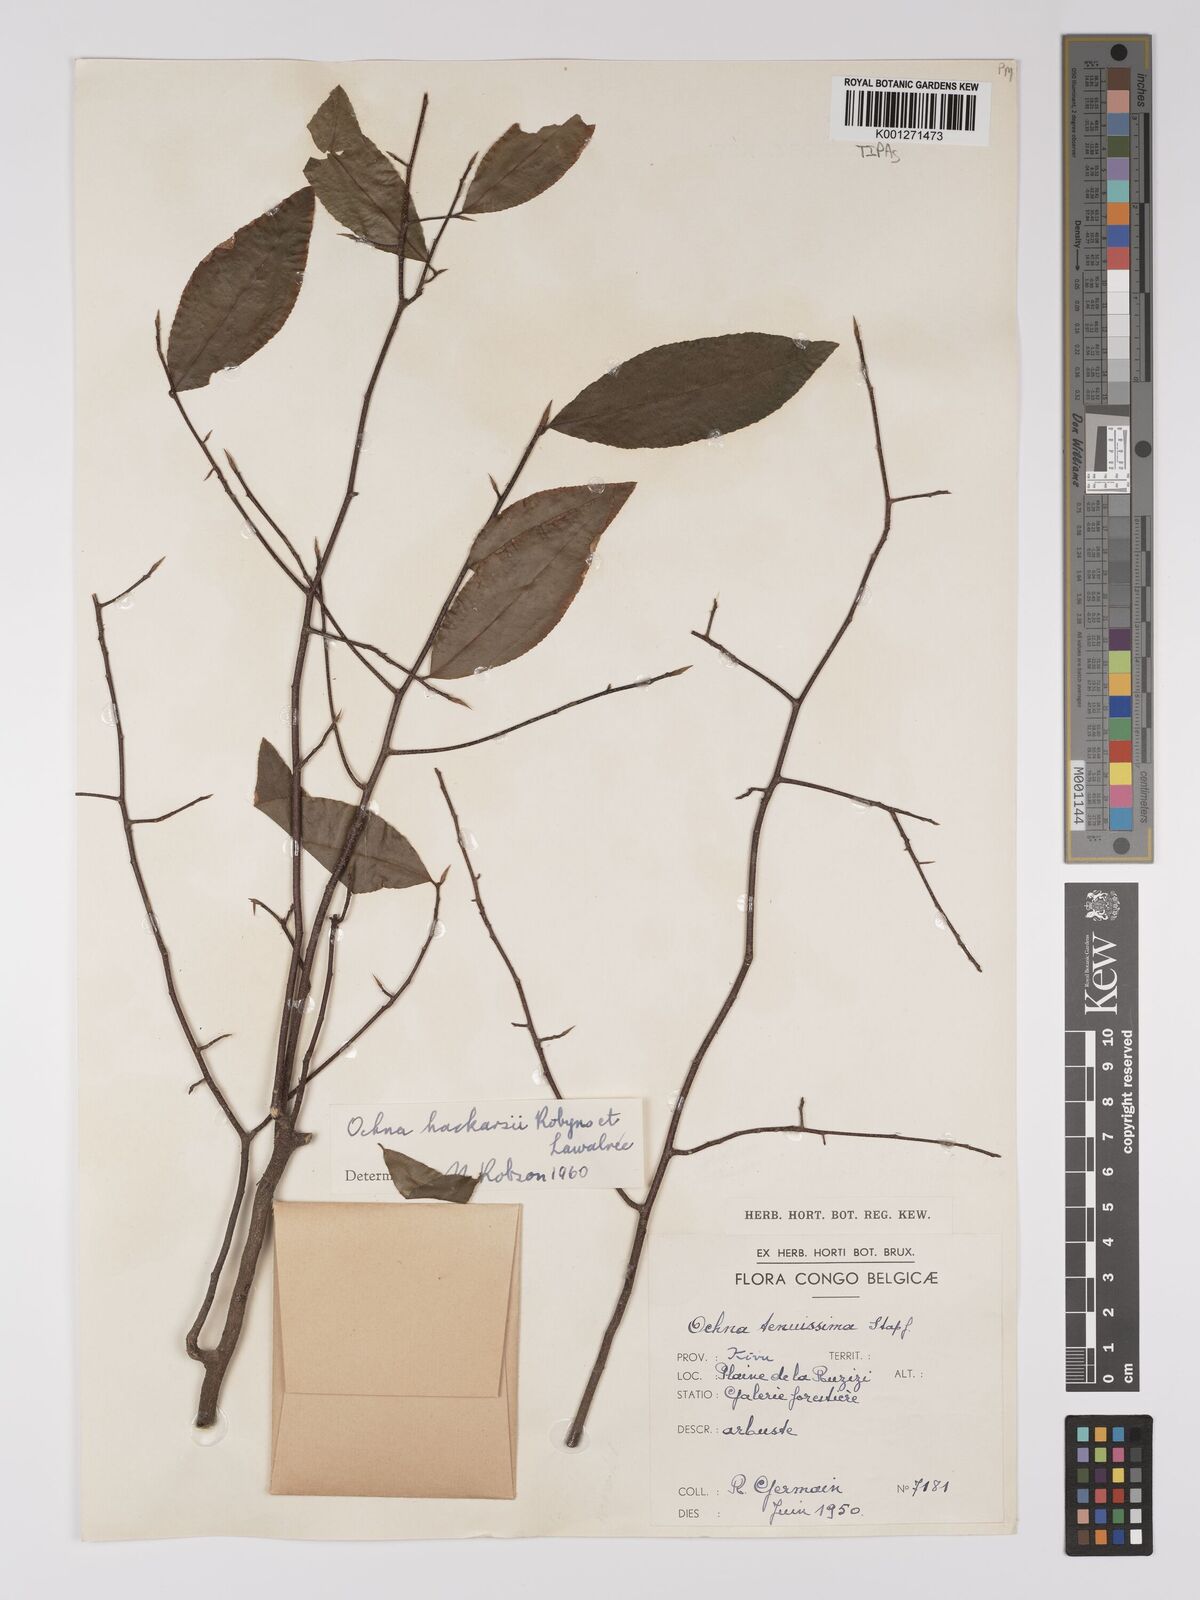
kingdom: Plantae
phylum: Tracheophyta
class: Magnoliopsida
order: Malpighiales
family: Ochnaceae
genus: Ochna
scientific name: Ochna hackarsii
